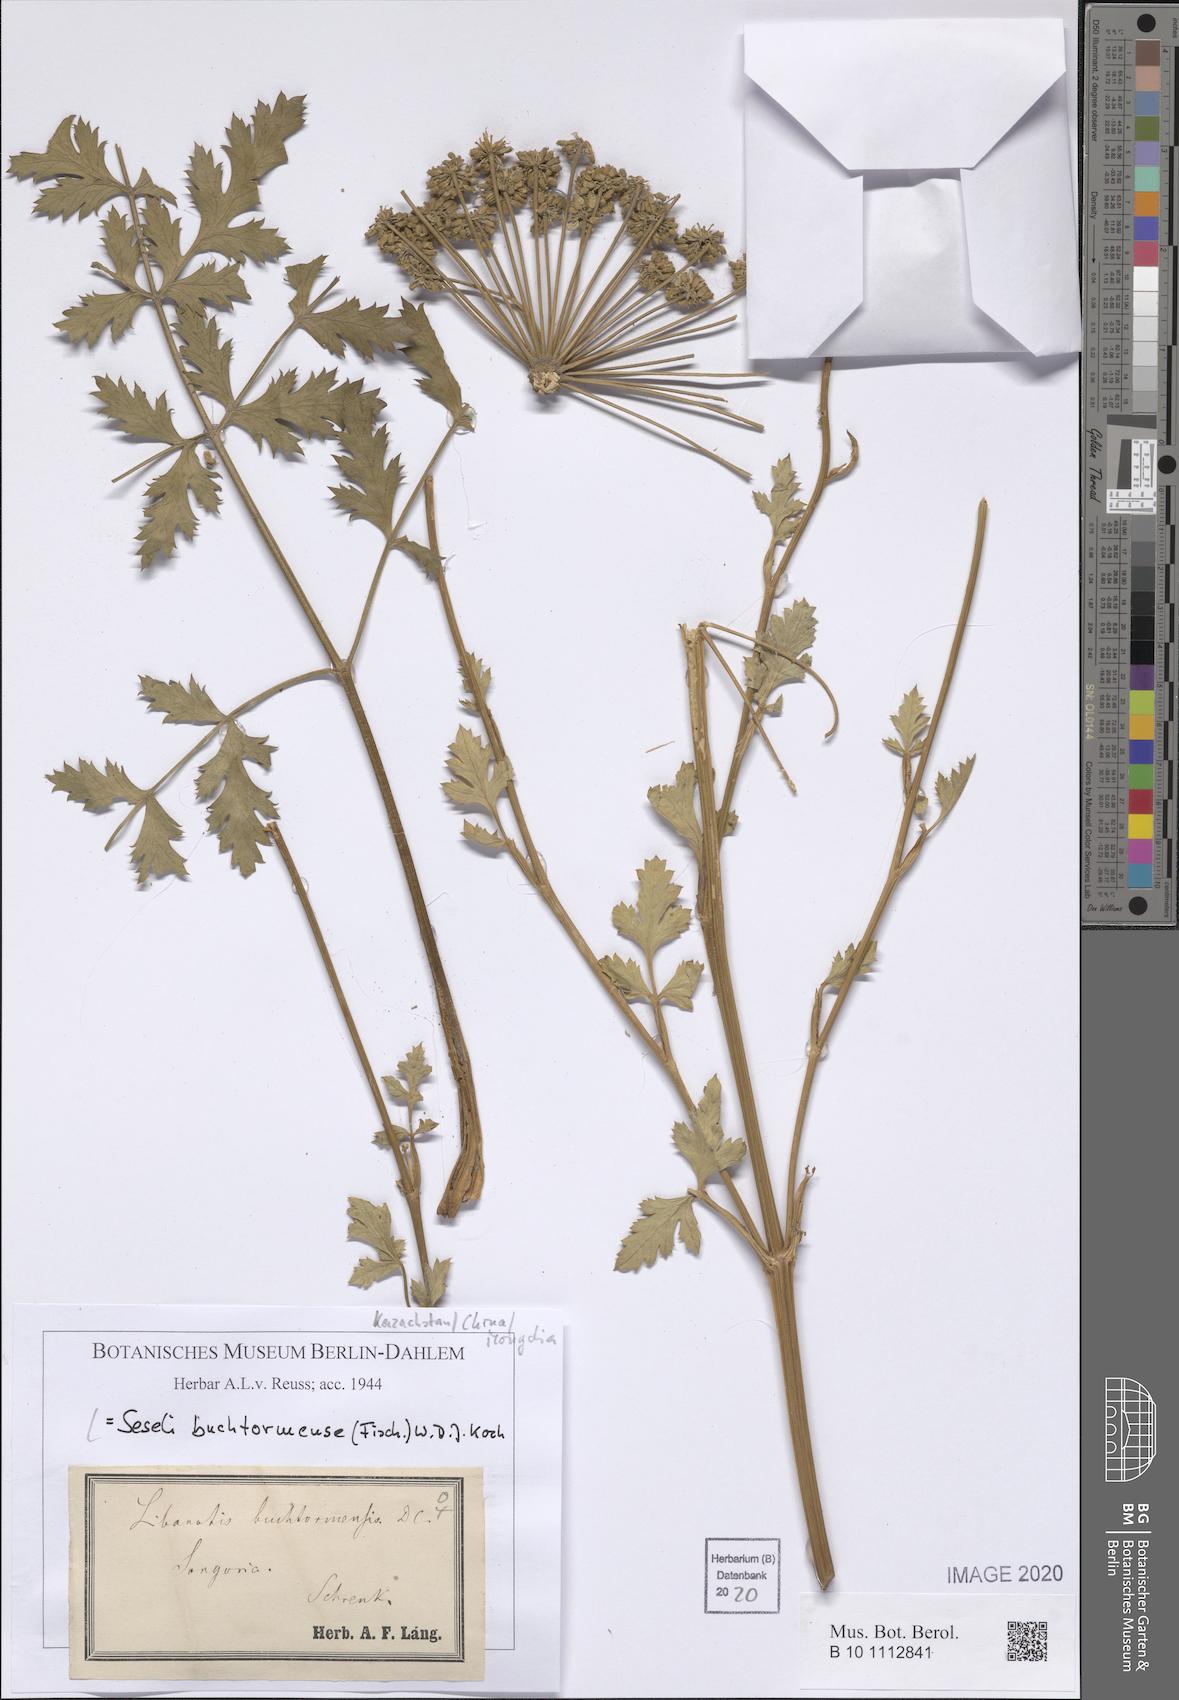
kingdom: Plantae
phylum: Tracheophyta
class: Magnoliopsida
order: Apiales
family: Apiaceae
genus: Seseli
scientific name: Seseli buchtormense
